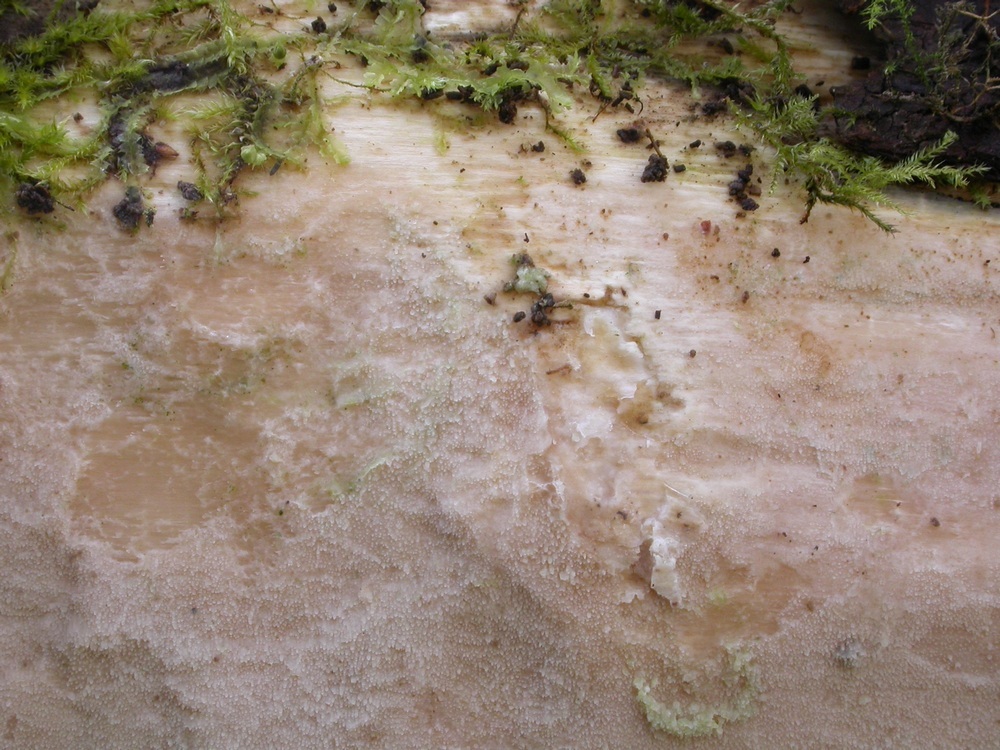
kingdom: Fungi
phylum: Basidiomycota
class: Agaricomycetes
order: Hymenochaetales
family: Rickenellaceae
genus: Resinicium
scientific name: Resinicium bicolor
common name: almindelig vokstand
